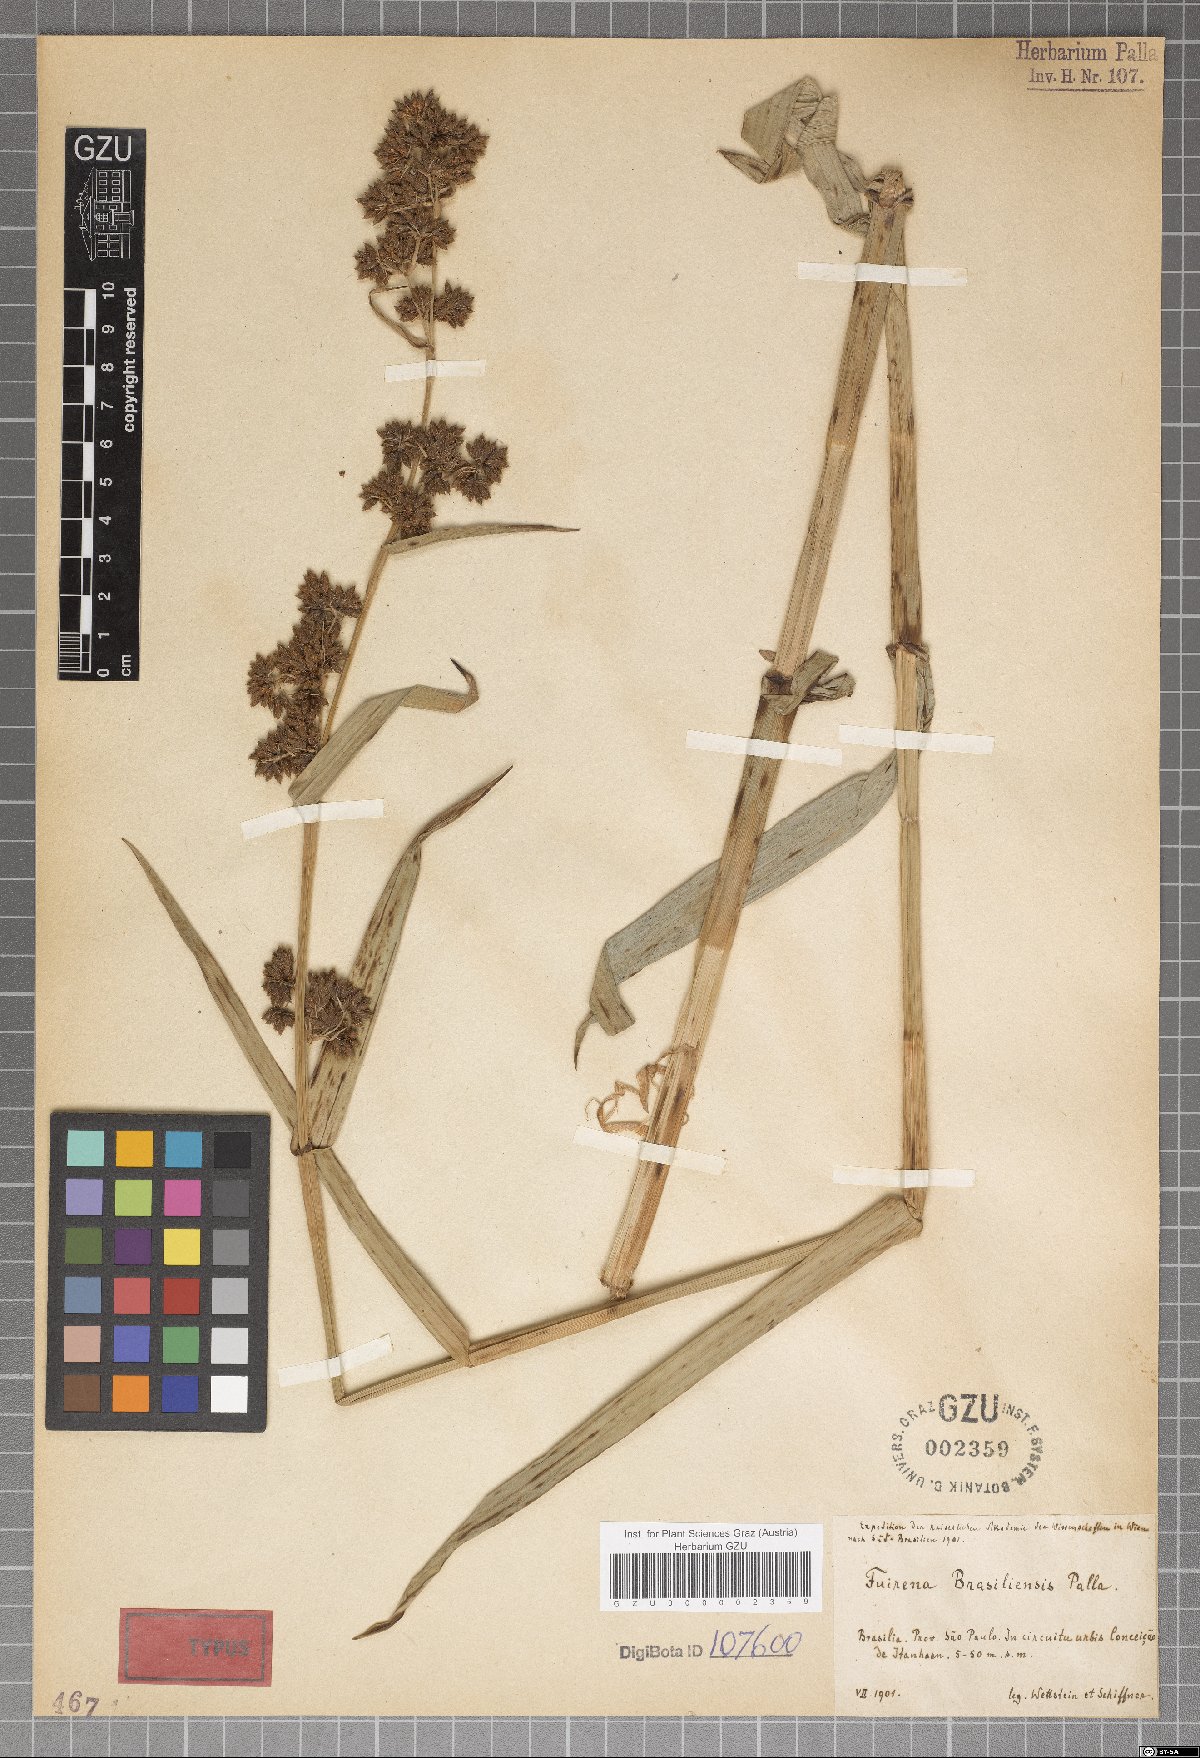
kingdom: Plantae
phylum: Tracheophyta
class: Liliopsida
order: Poales
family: Cyperaceae
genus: Fuirena
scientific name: Fuirena umbellata
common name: Yefen
